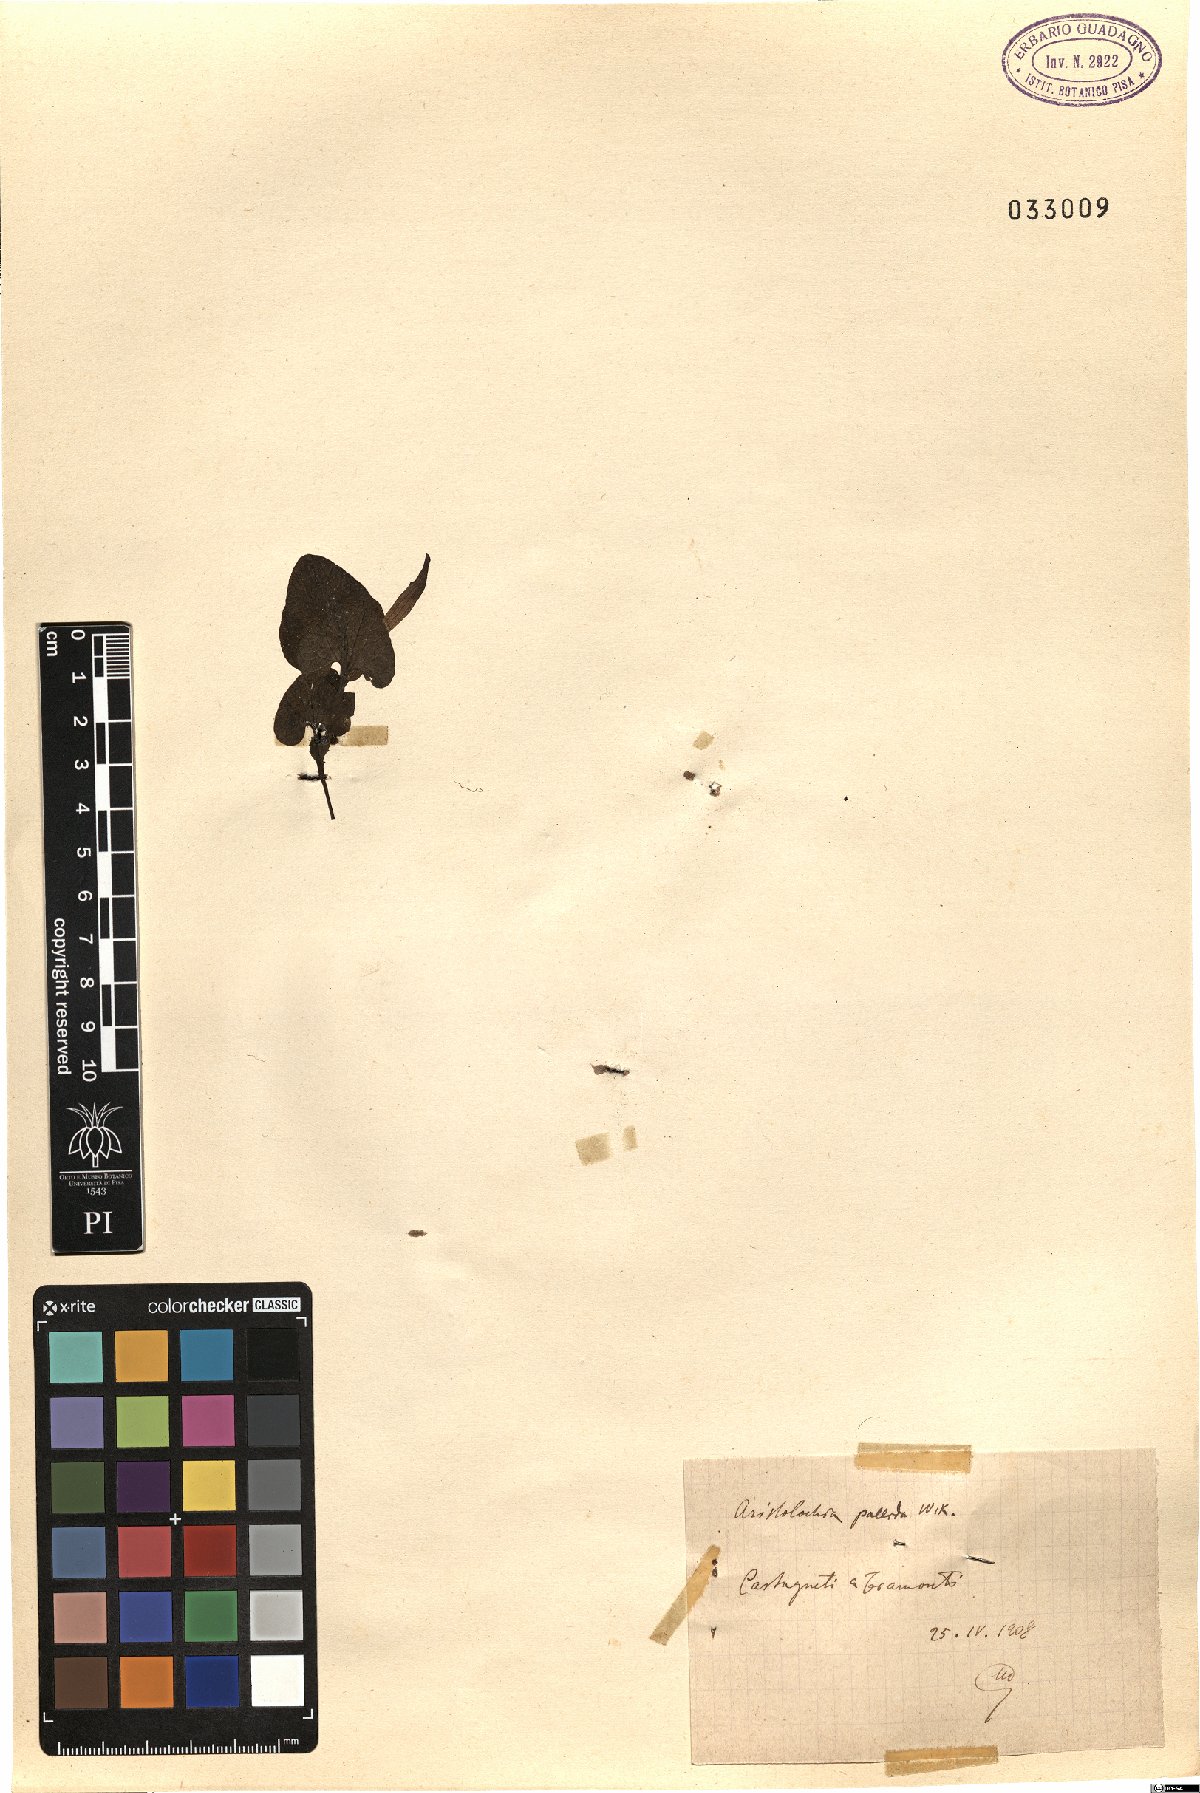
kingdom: Plantae
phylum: Tracheophyta
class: Magnoliopsida
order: Piperales
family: Aristolochiaceae
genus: Aristolochia
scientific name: Aristolochia pallida
